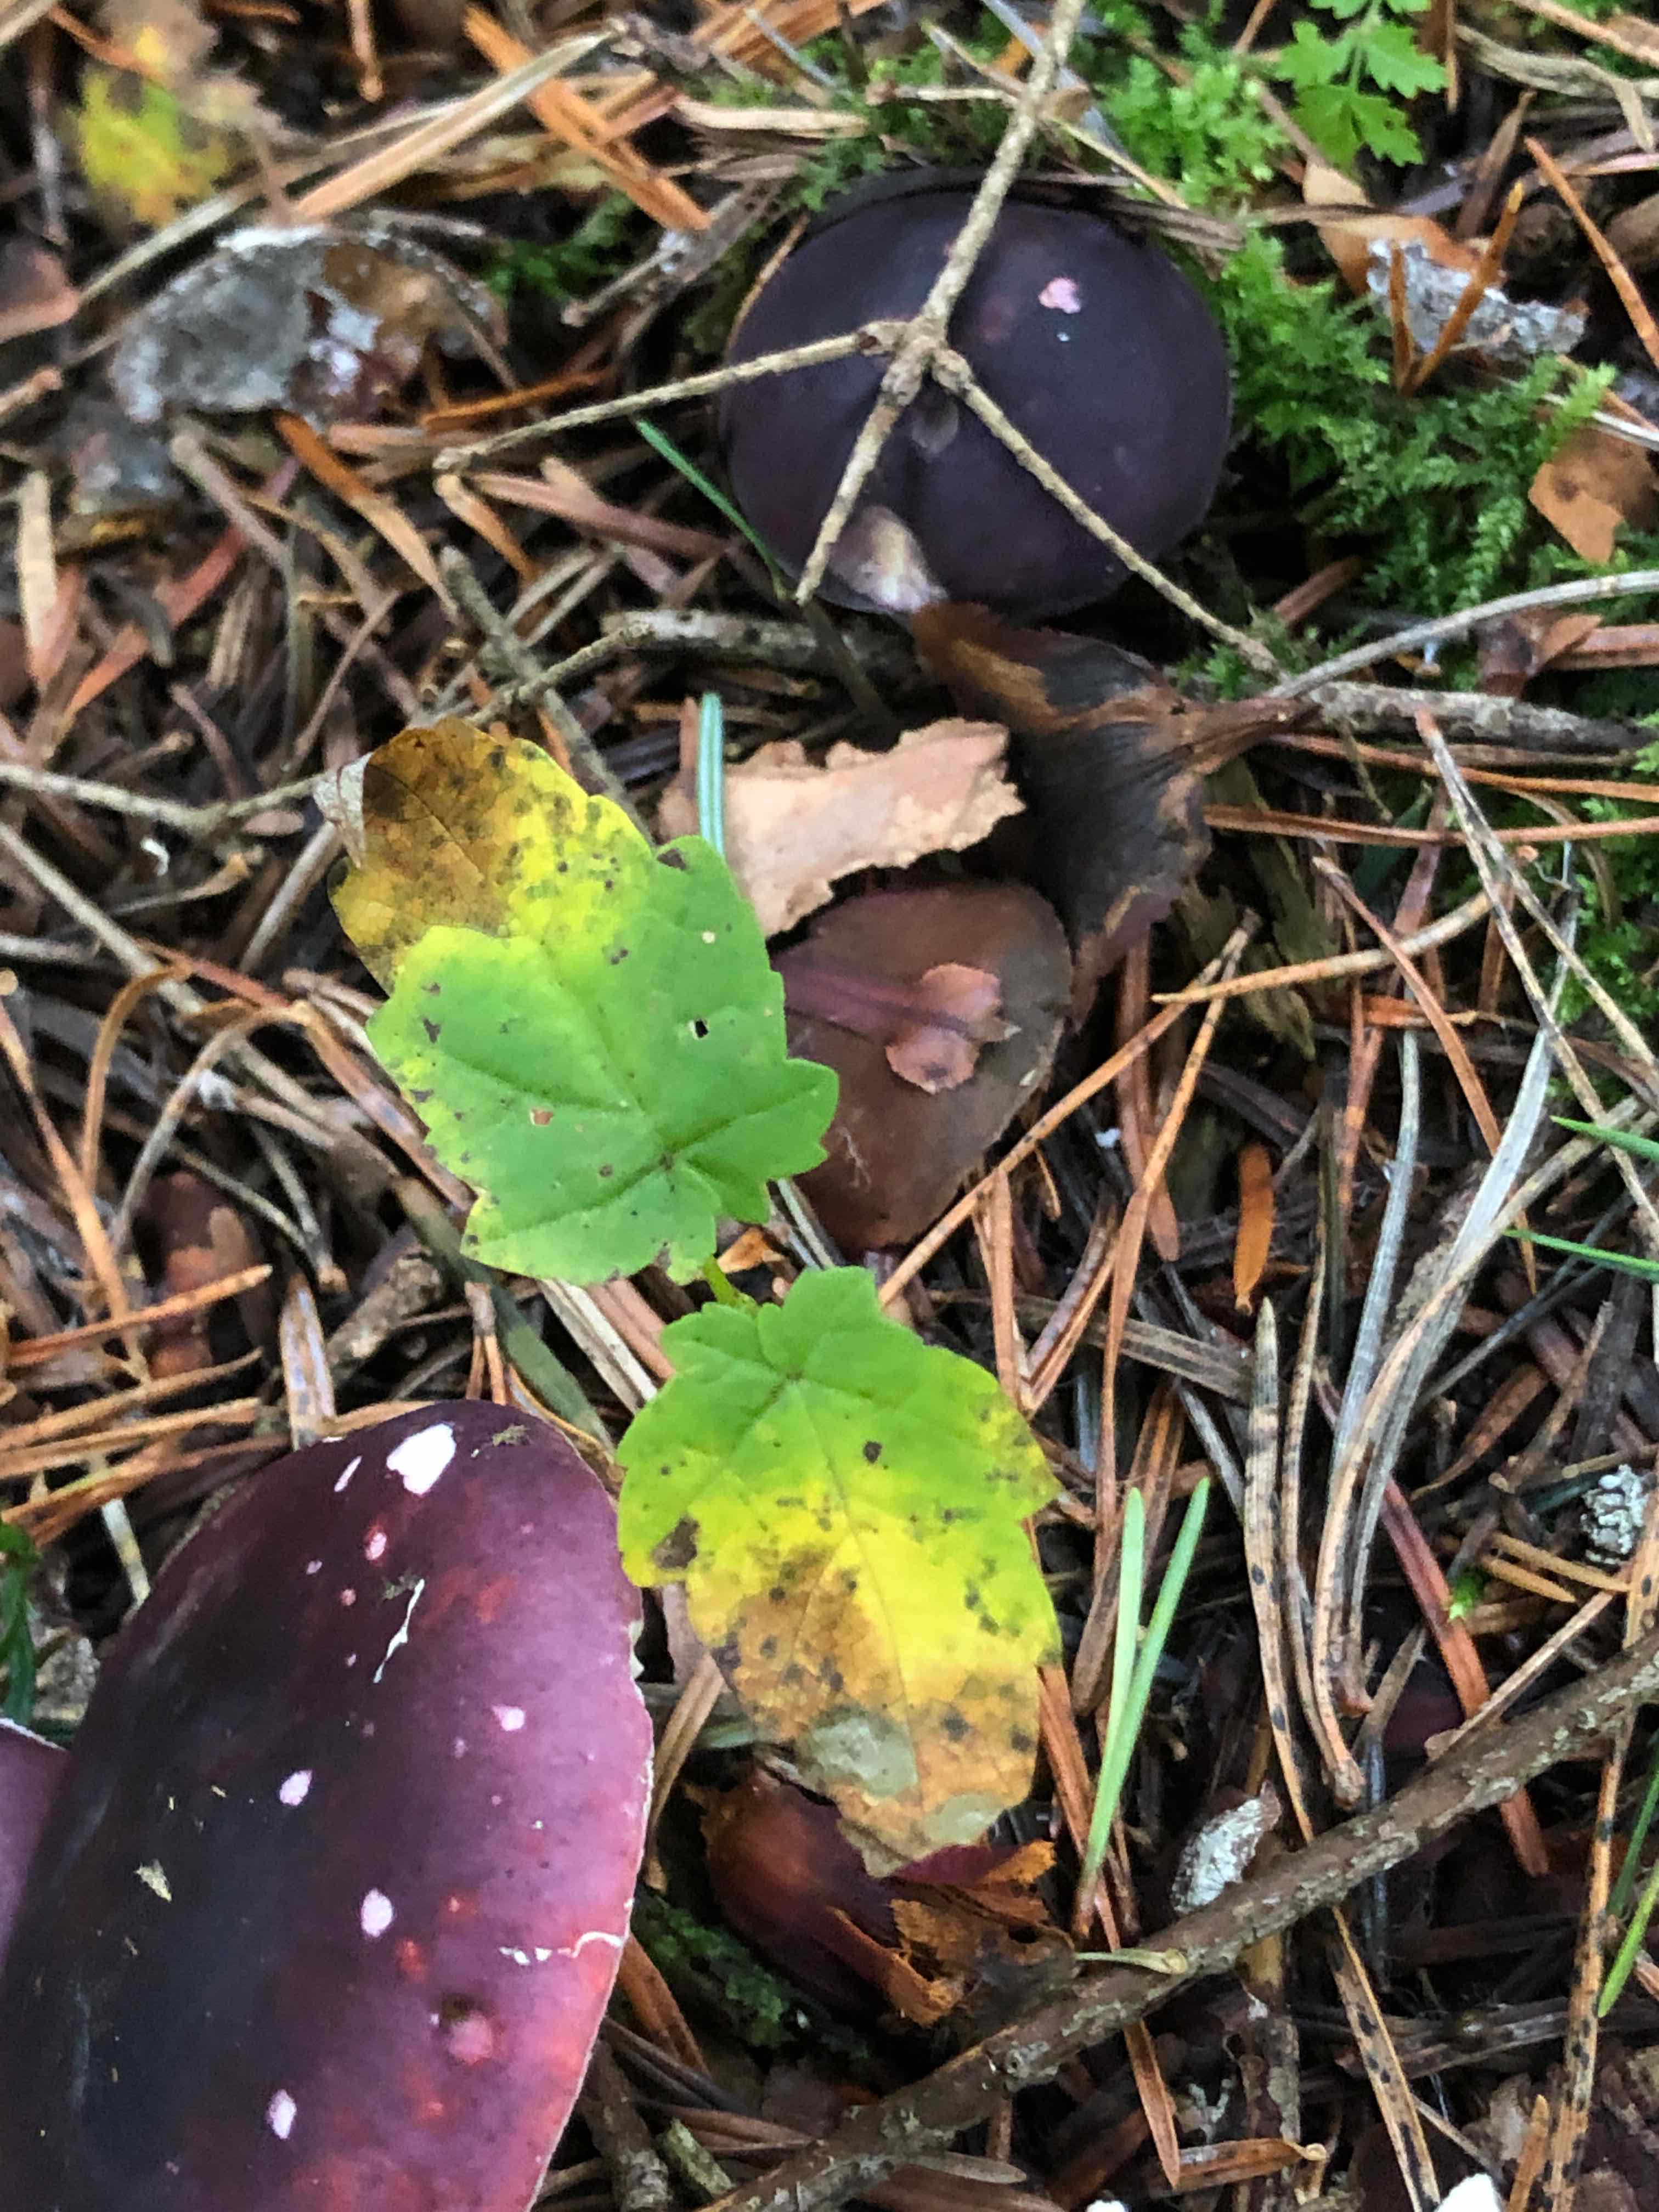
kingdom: Fungi
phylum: Basidiomycota
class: Agaricomycetes
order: Russulales
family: Russulaceae
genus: Russula
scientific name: Russula sardonia
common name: citronbladet skørhat
